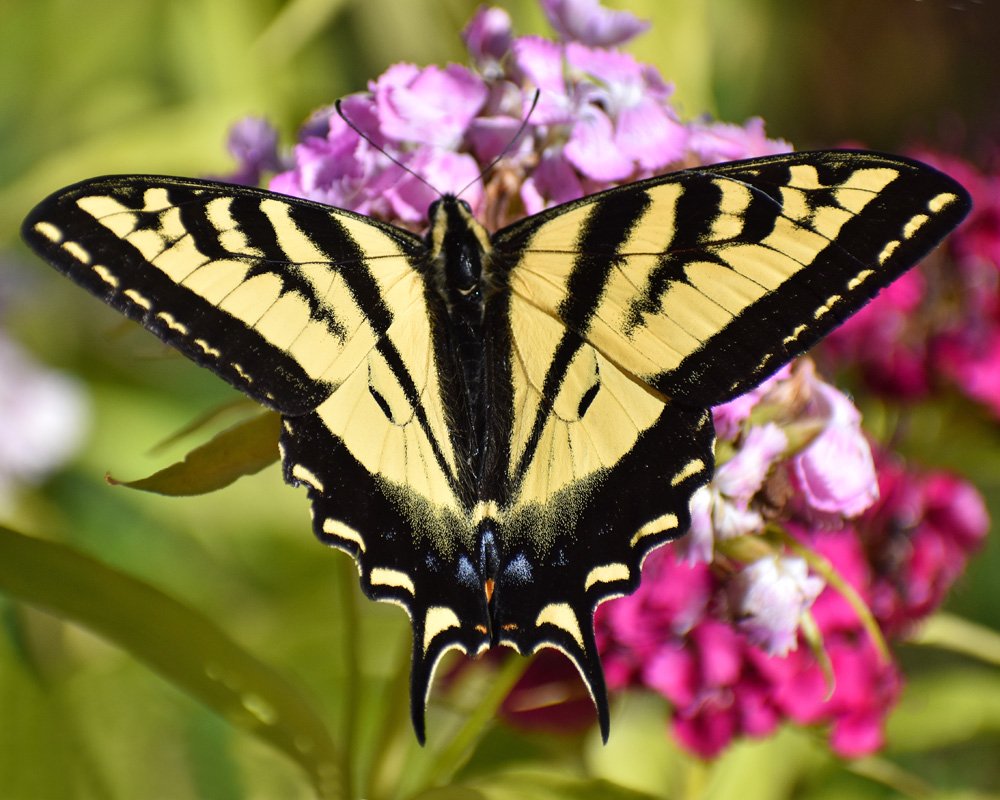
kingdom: Animalia
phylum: Arthropoda
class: Insecta
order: Lepidoptera
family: Papilionidae
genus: Pterourus
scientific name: Pterourus rutulus
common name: Western Tiger Swallowtail
